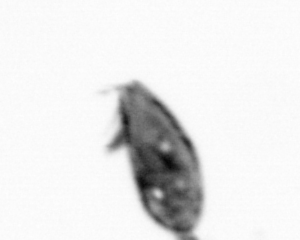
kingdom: Animalia
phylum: Arthropoda
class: Maxillopoda
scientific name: Maxillopoda
